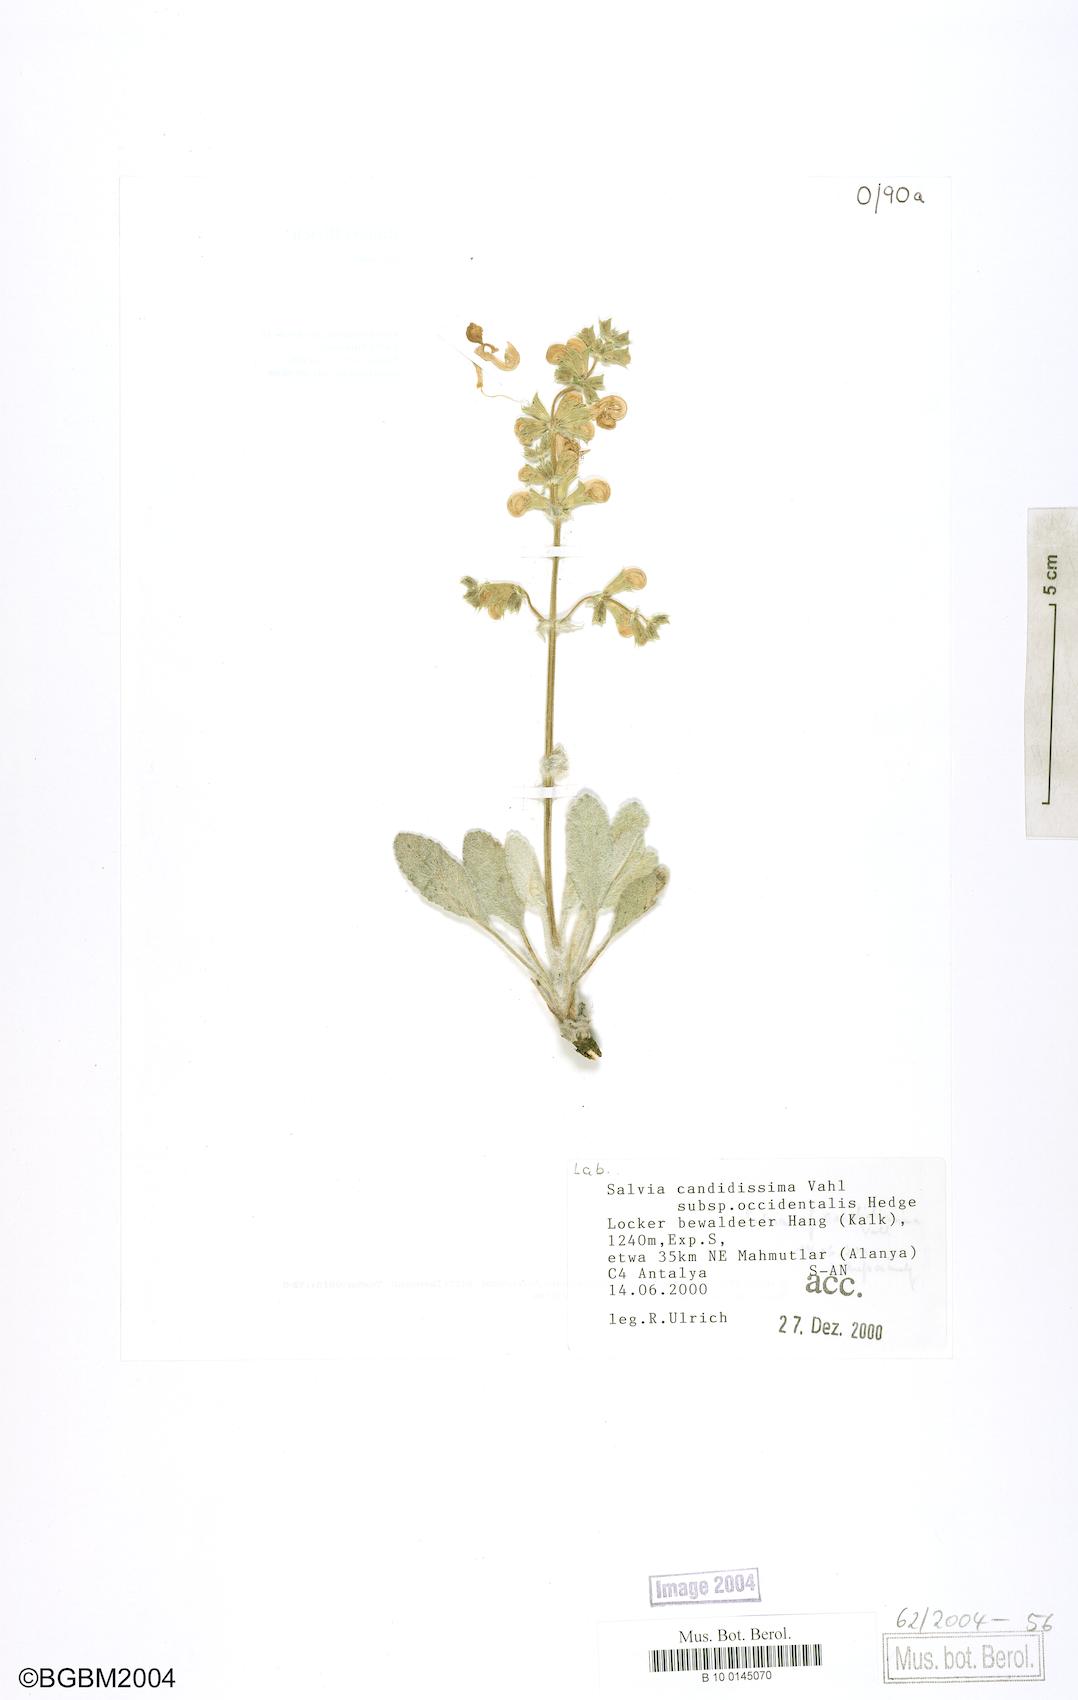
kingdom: Plantae
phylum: Tracheophyta
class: Magnoliopsida
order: Lamiales
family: Lamiaceae
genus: Salvia
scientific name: Salvia candidissima
